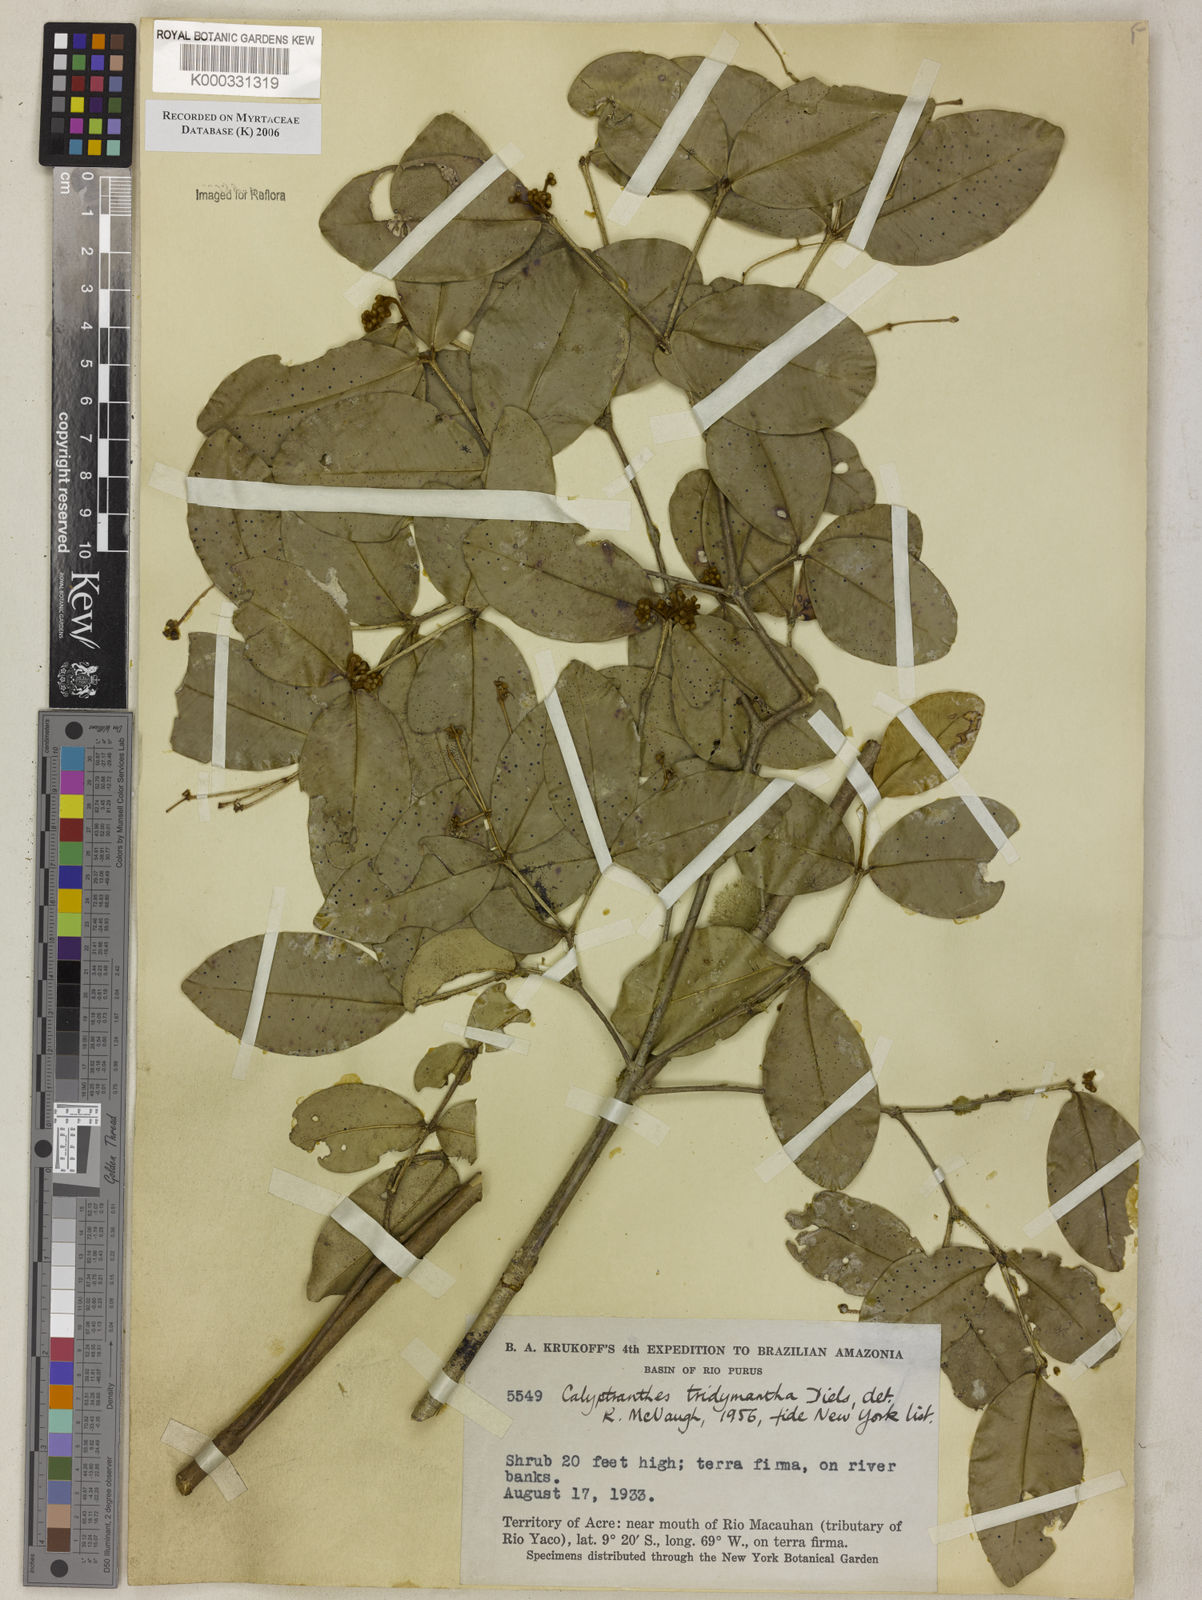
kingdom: Plantae
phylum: Tracheophyta
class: Magnoliopsida
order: Myrtales
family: Myrtaceae
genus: Myrcia
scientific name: Myrcia tridymantha
